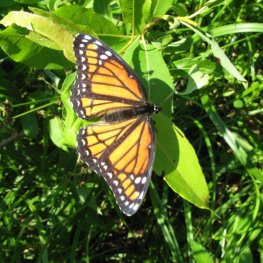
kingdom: Animalia
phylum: Arthropoda
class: Insecta
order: Lepidoptera
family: Nymphalidae
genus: Limenitis
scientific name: Limenitis archippus
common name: Viceroy
